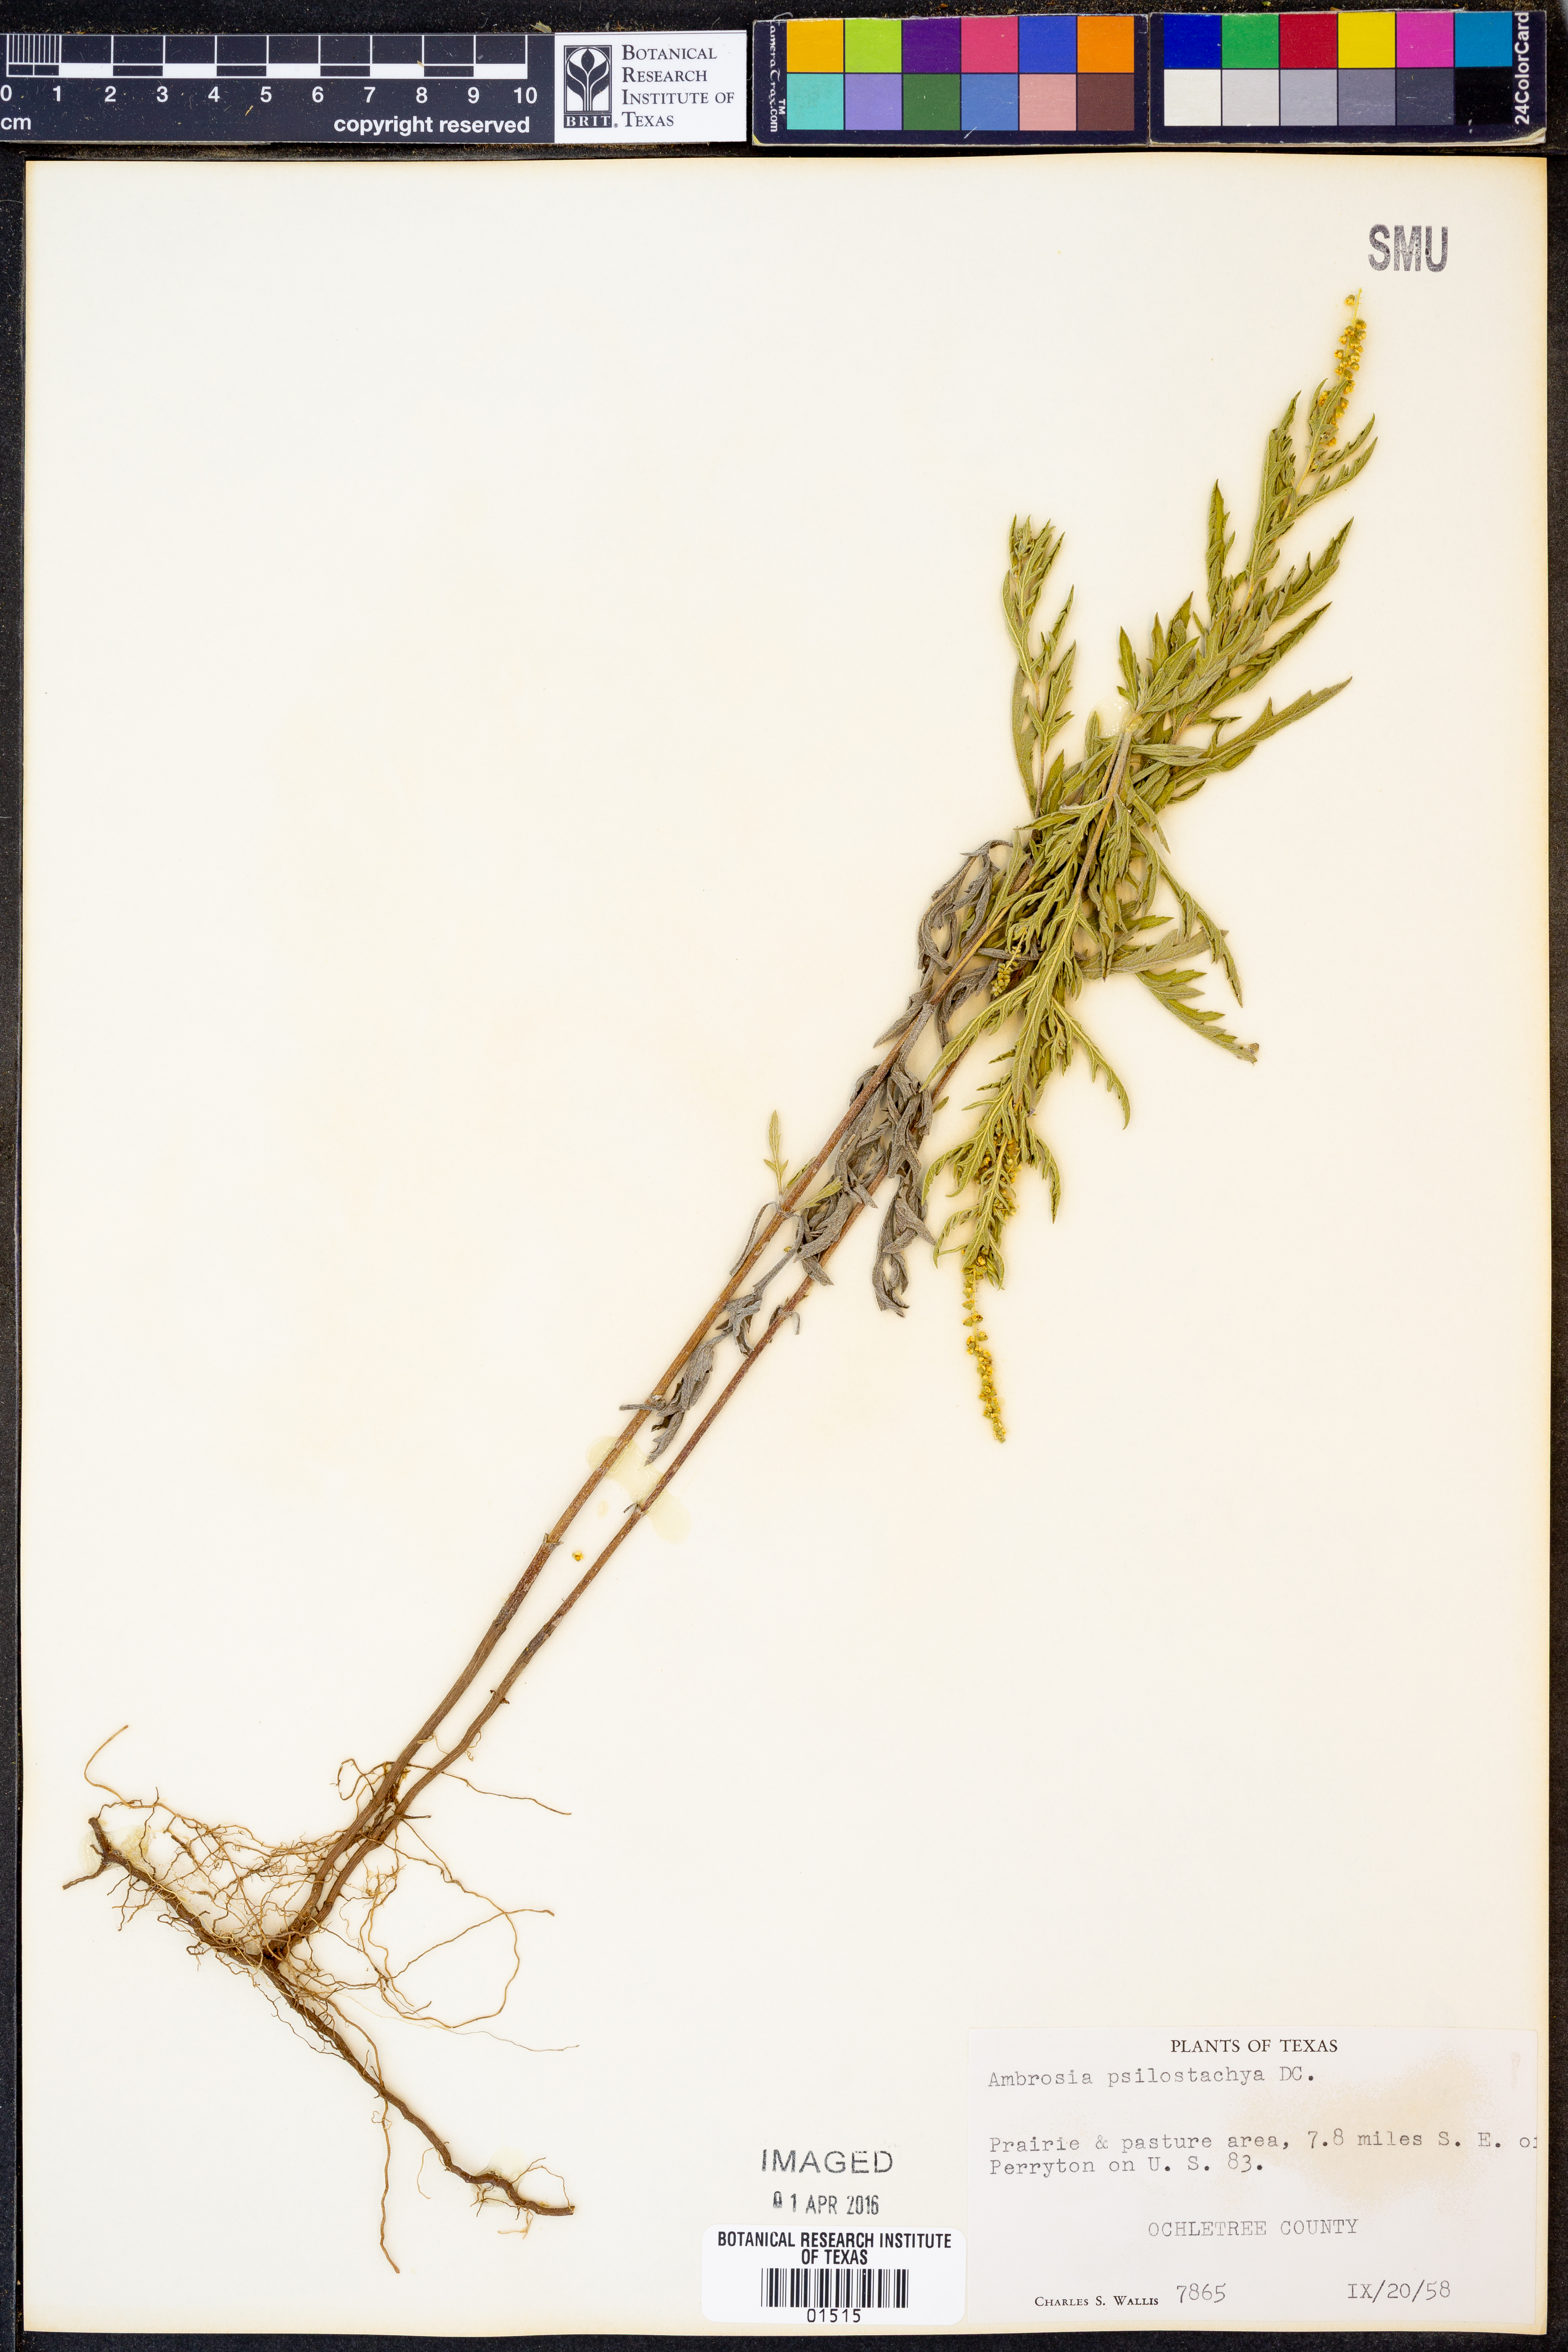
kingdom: Plantae
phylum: Tracheophyta
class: Magnoliopsida
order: Asterales
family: Asteraceae
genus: Ambrosia
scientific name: Ambrosia psilostachya
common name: Perennial ragweed
